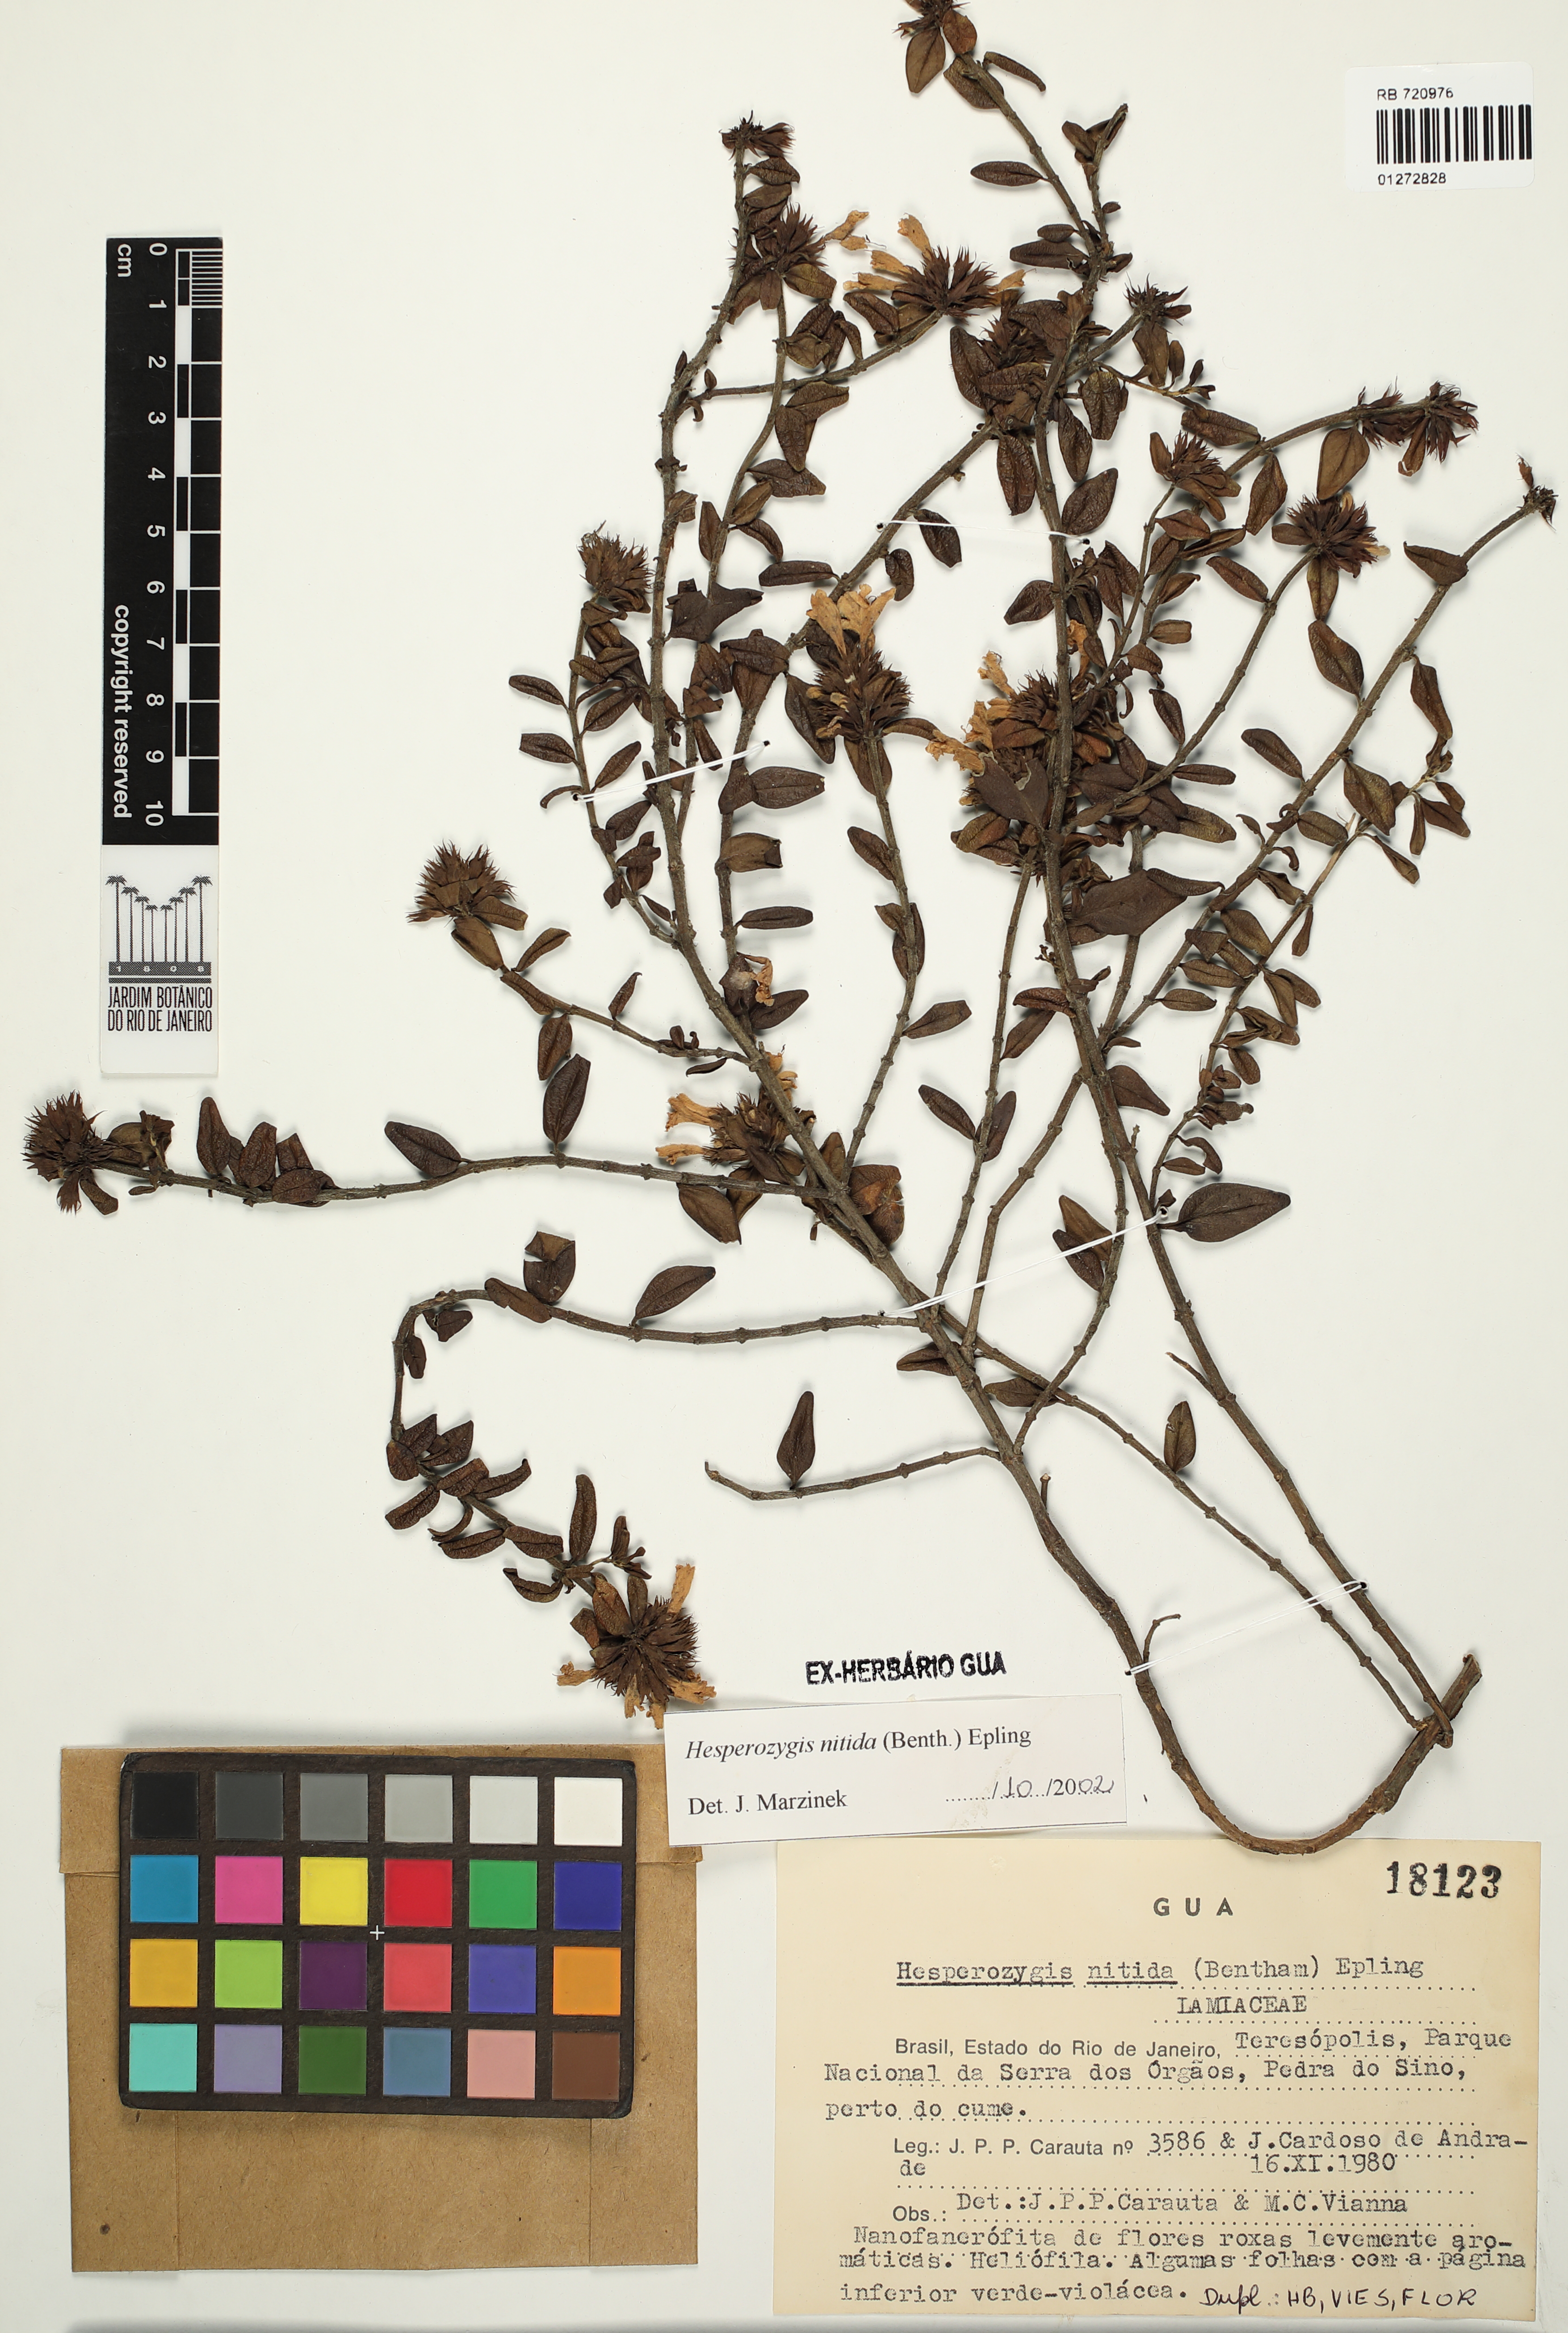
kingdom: Plantae
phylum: Tracheophyta
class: Magnoliopsida
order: Lamiales
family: Lamiaceae
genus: Hesperozygis
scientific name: Hesperozygis nitida
